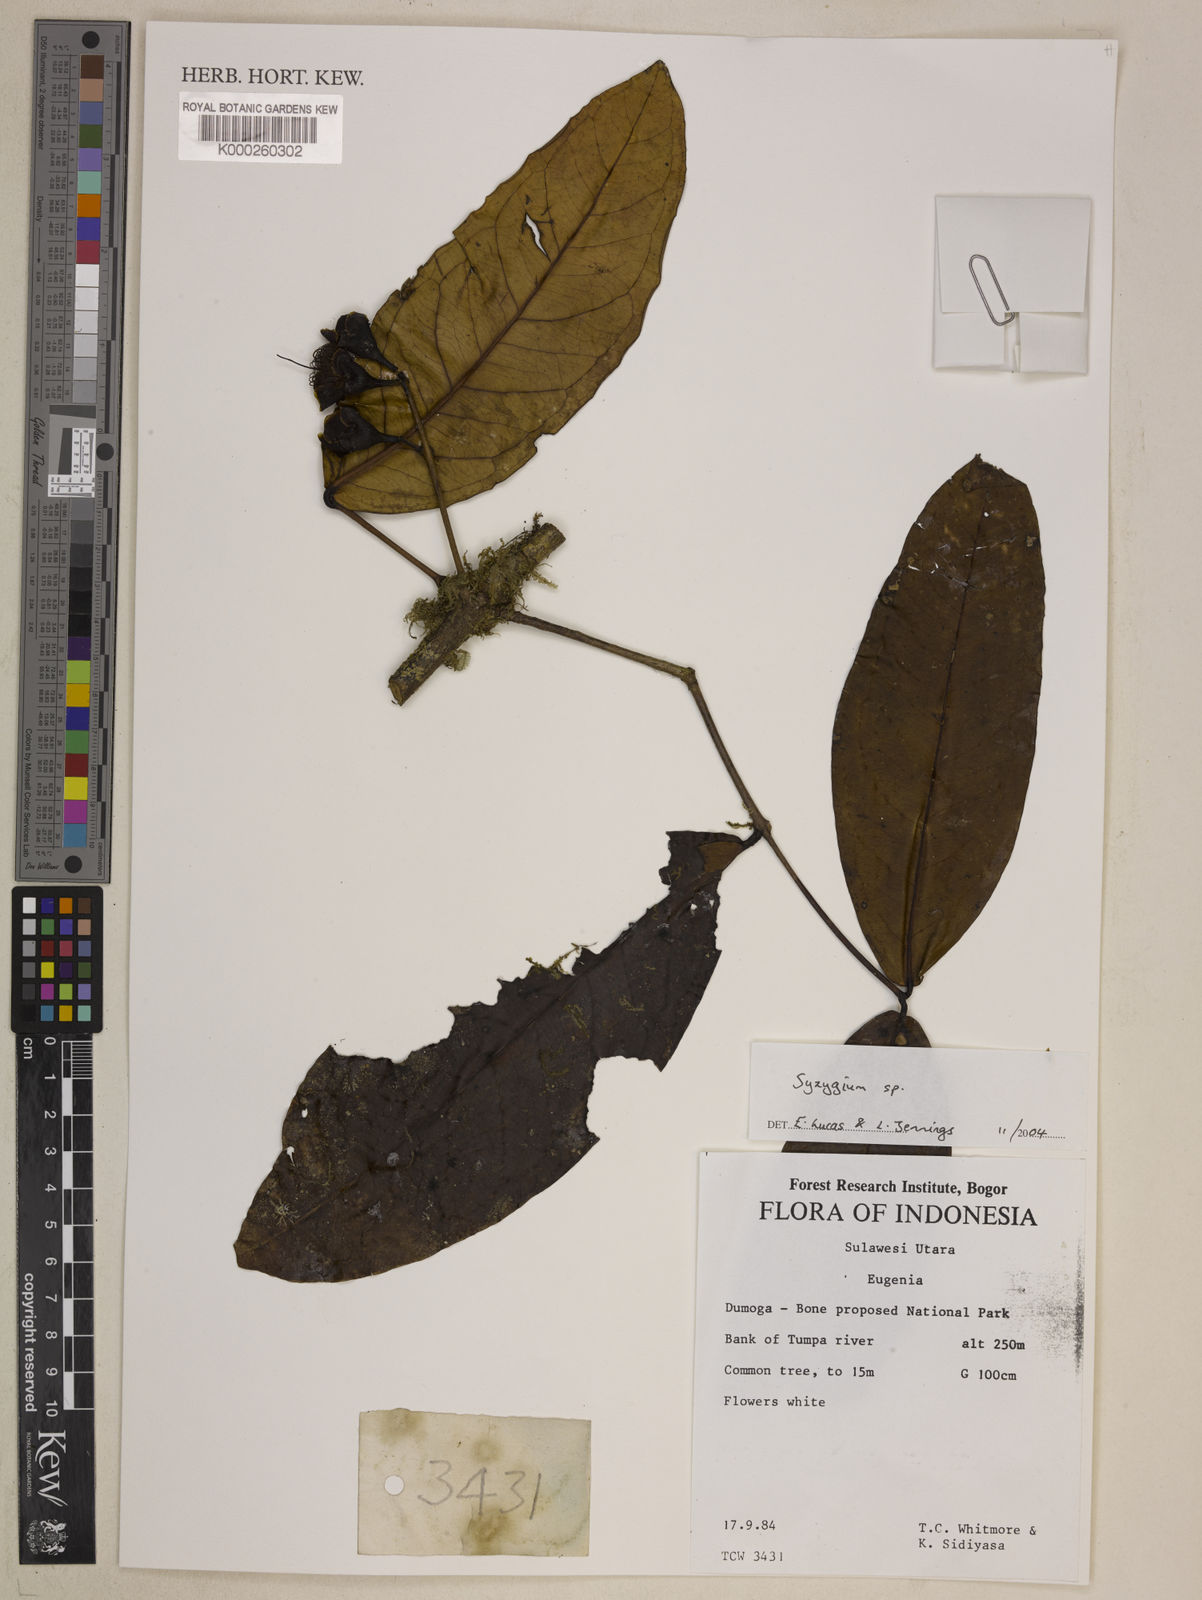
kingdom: Plantae
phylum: Tracheophyta
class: Magnoliopsida
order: Myrtales
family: Myrtaceae
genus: Syzygium
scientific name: Syzygium
